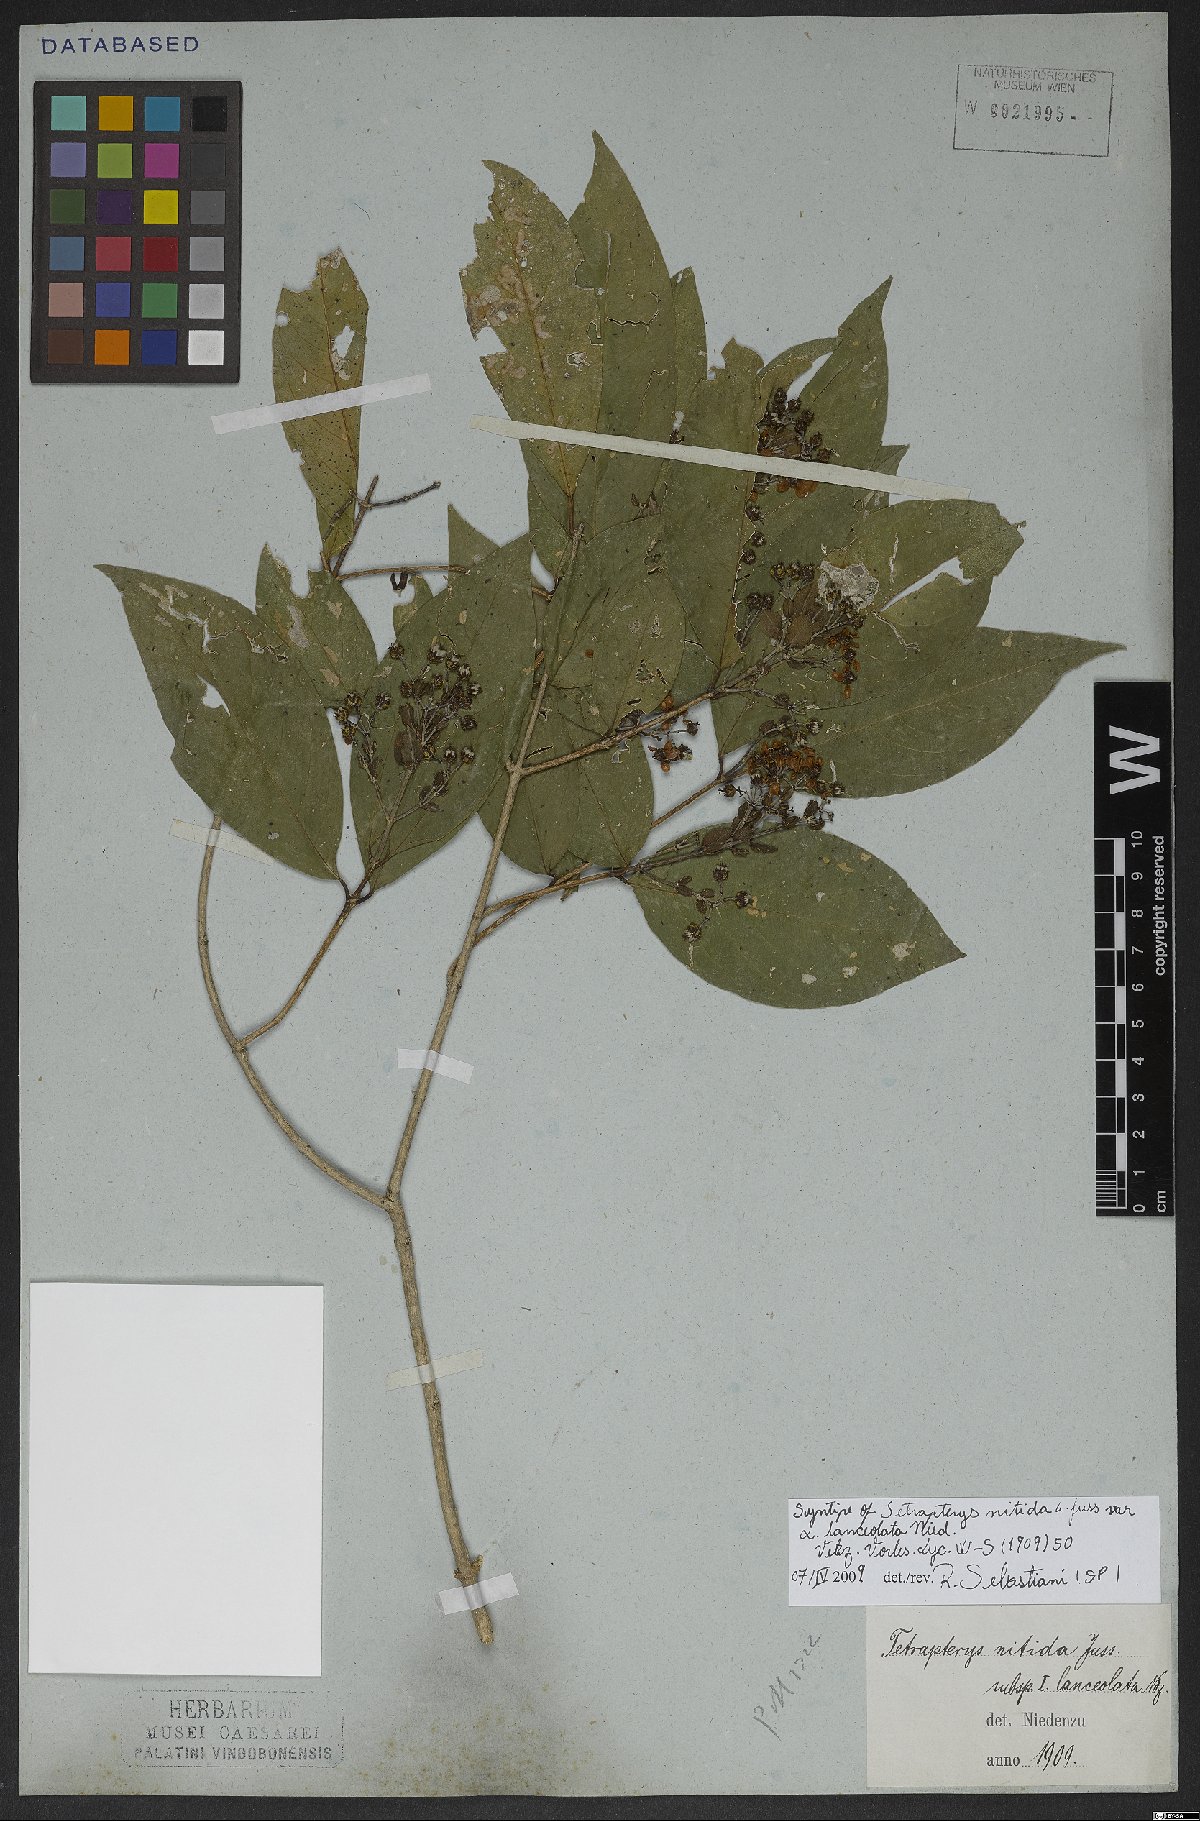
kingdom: Plantae
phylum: Tracheophyta
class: Magnoliopsida
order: Malpighiales
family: Malpighiaceae
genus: Tetrapterys
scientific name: Tetrapterys nitida
